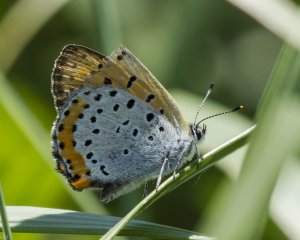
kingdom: Animalia
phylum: Arthropoda
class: Insecta
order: Lepidoptera
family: Sesiidae
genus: Sesia
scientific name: Sesia Lycaena hyllus
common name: Bronze Copper
